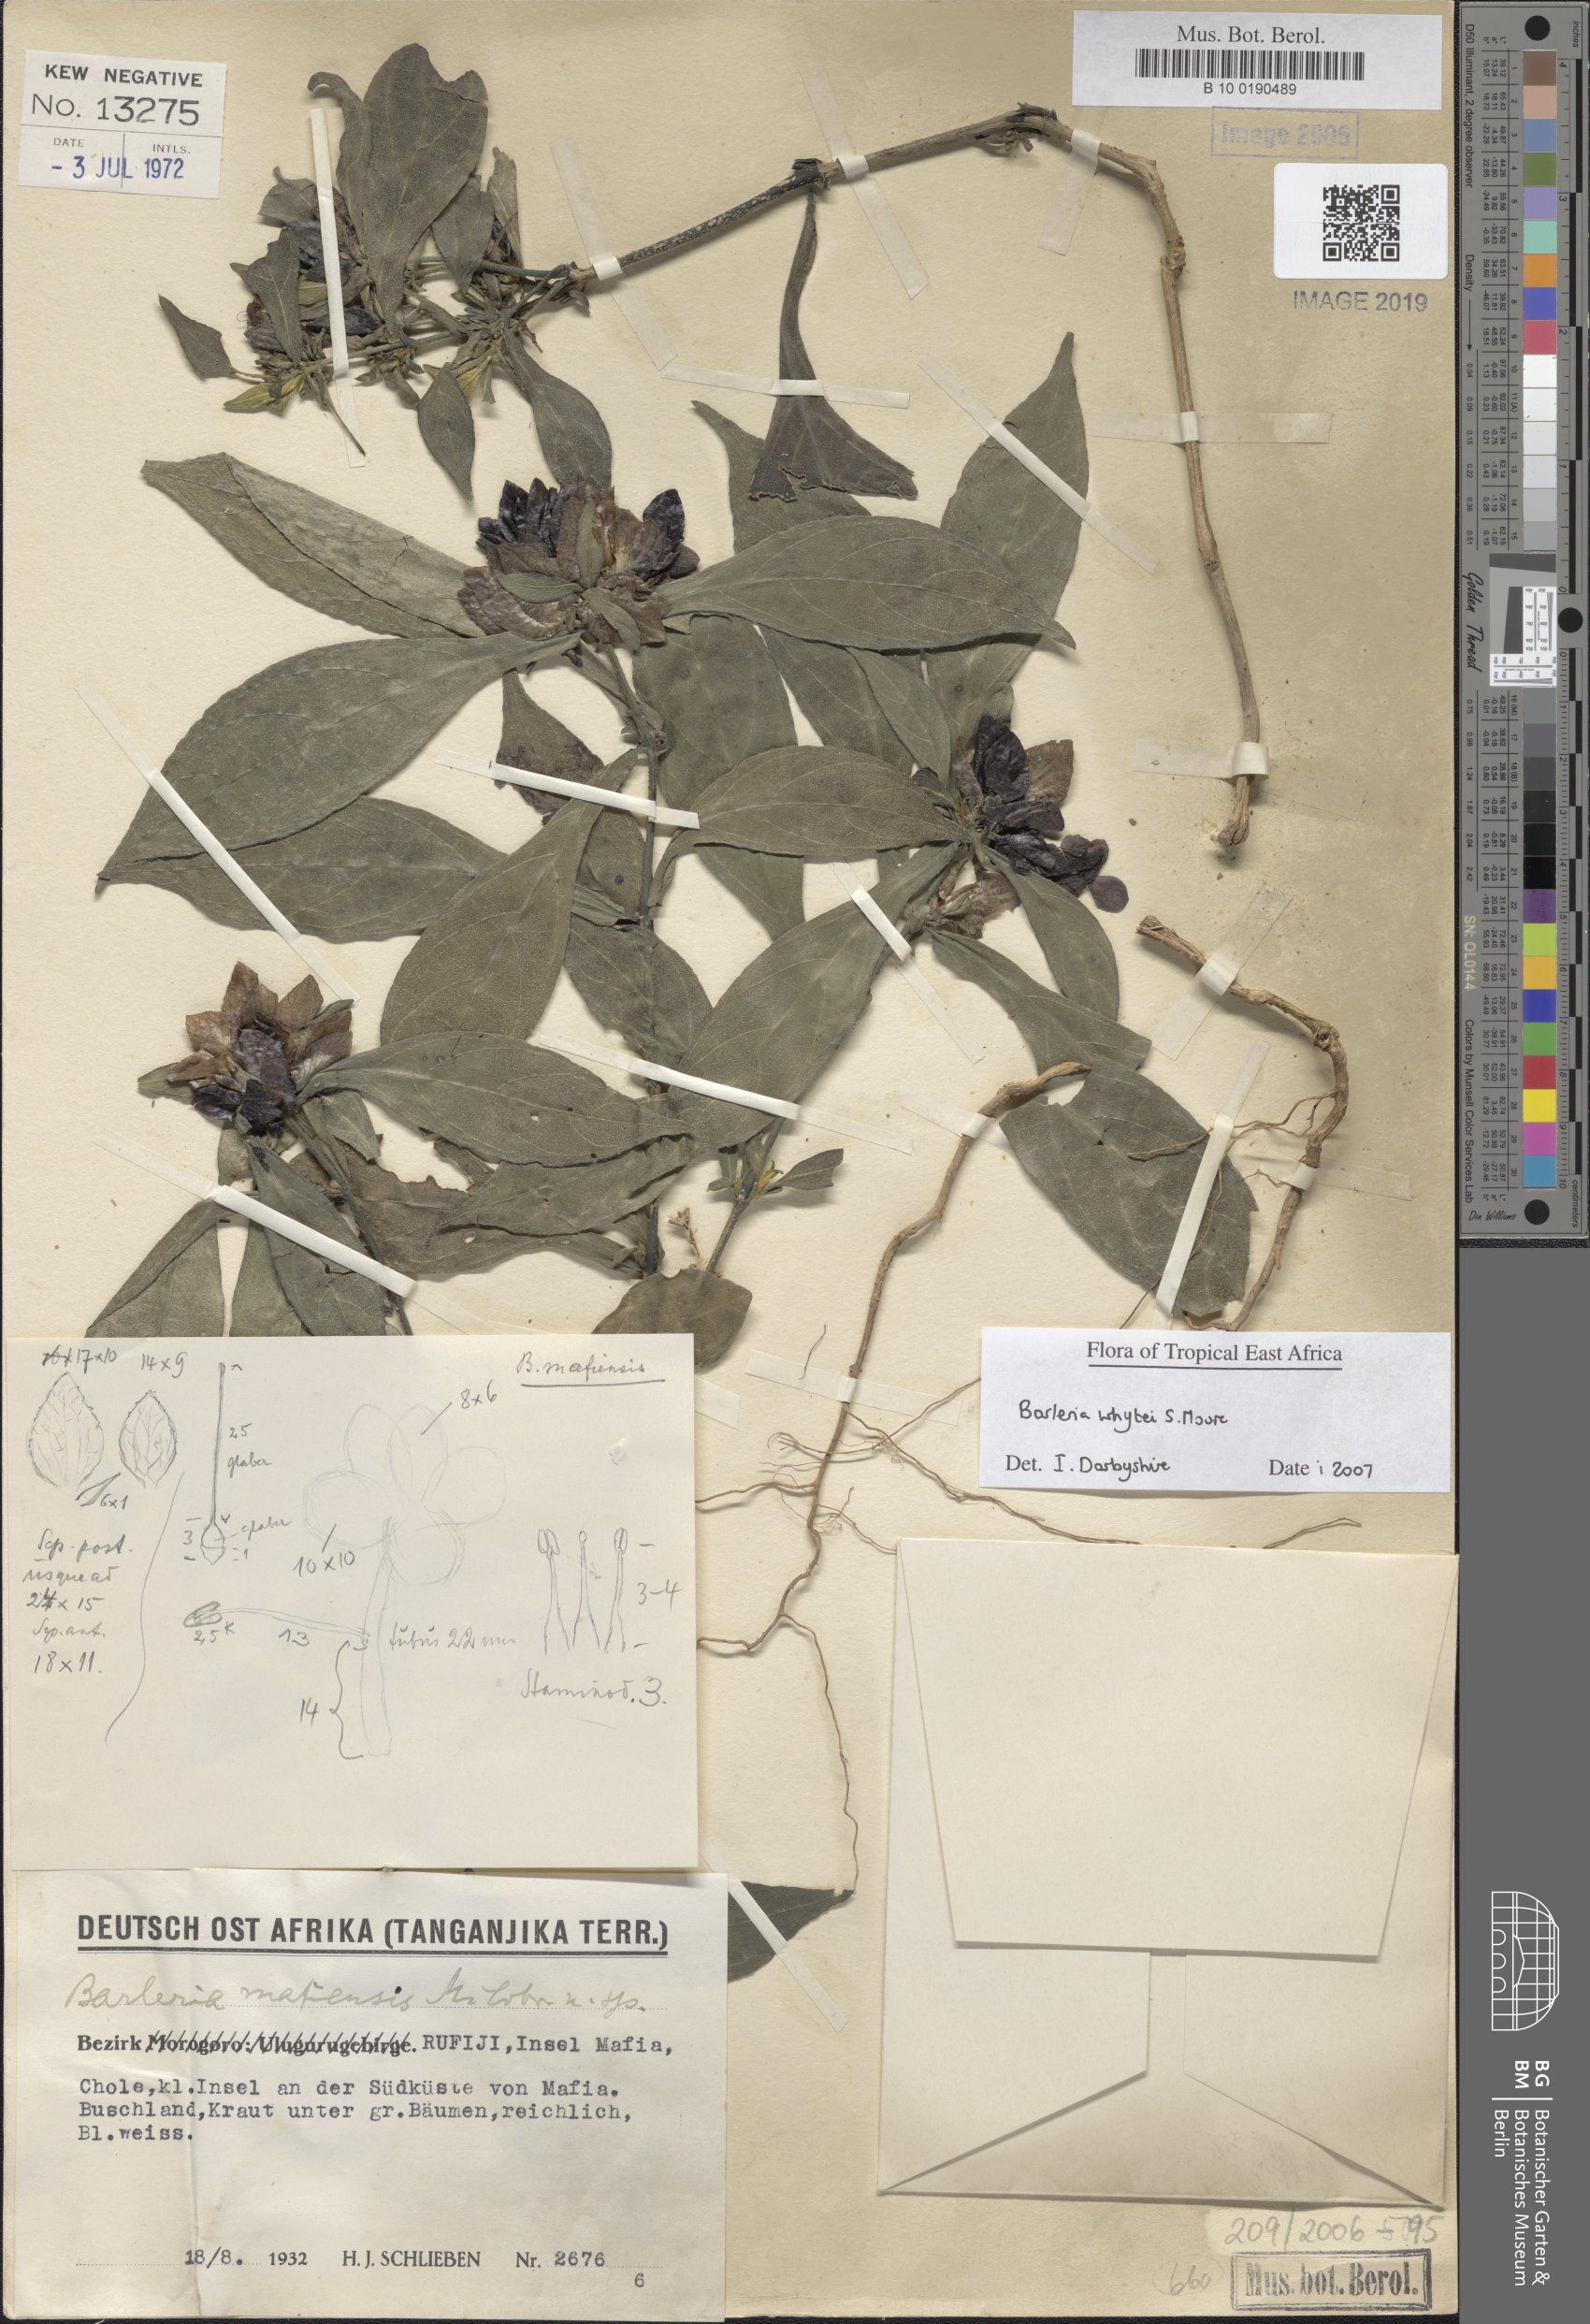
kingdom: Plantae
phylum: Tracheophyta
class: Magnoliopsida
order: Lamiales
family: Acanthaceae
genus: Barleria
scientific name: Barleria matopensis
